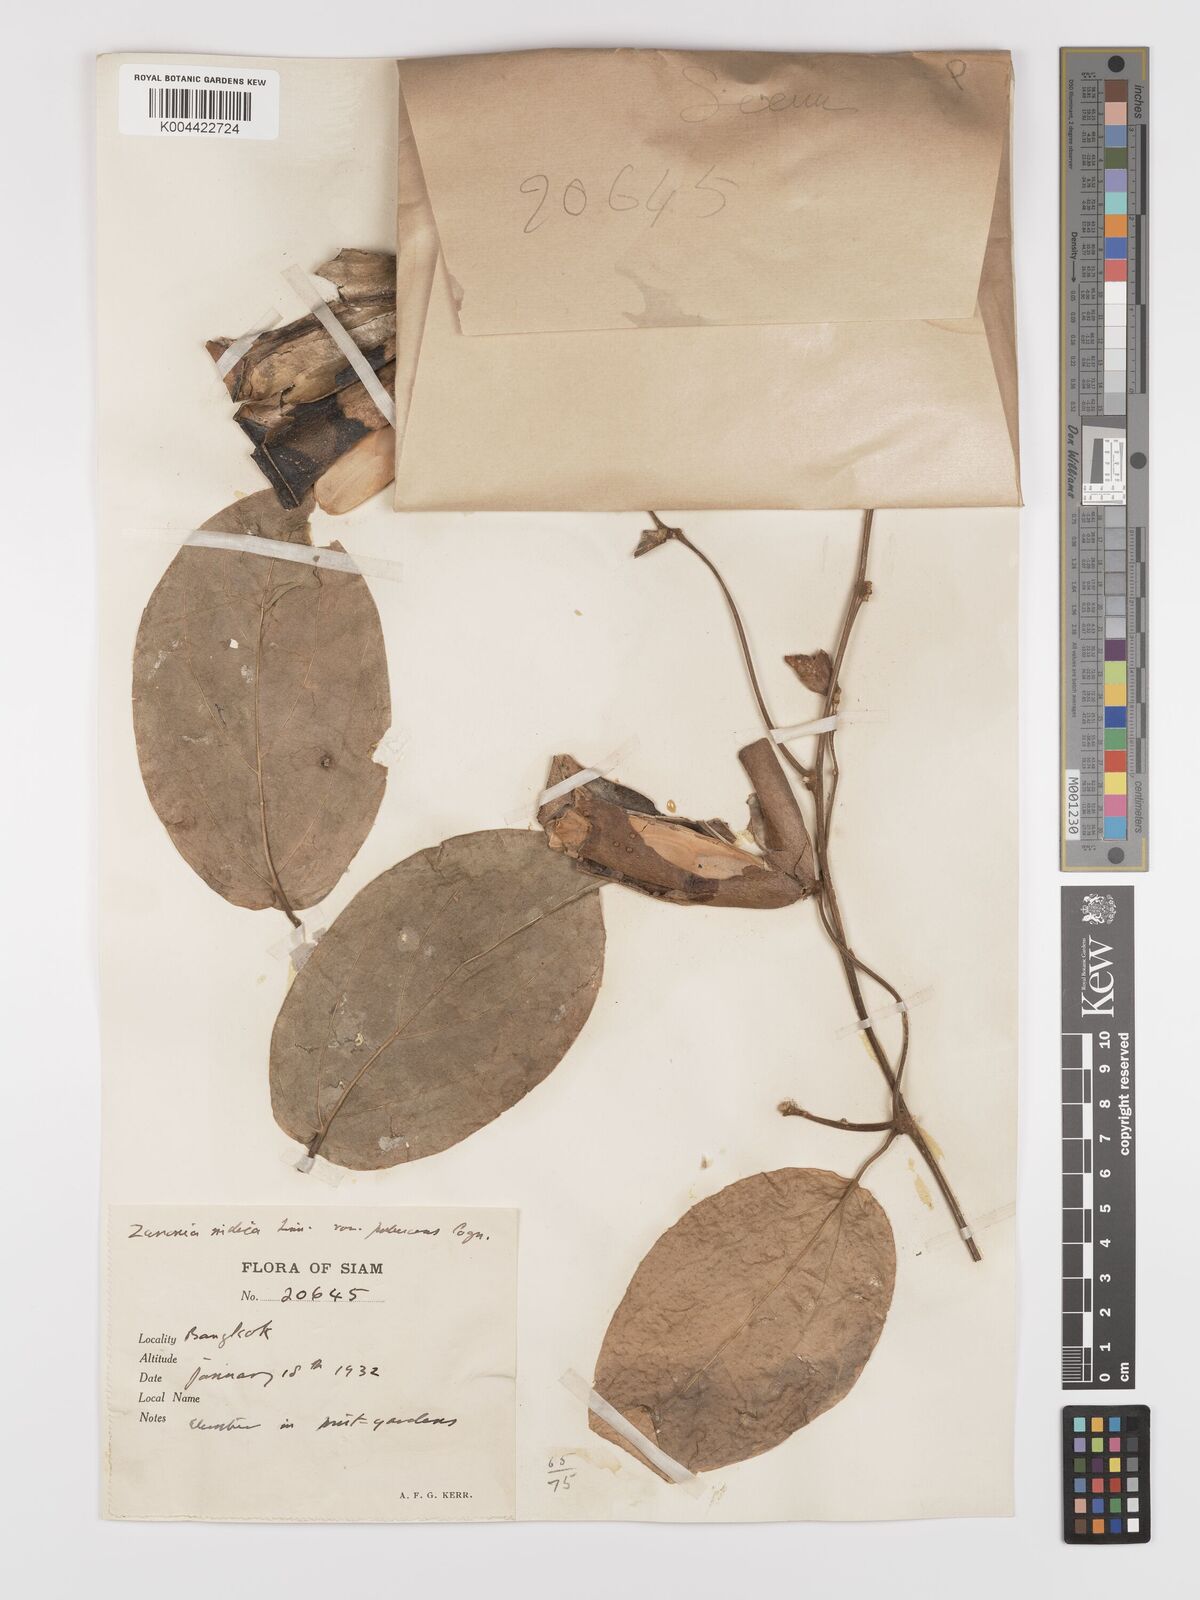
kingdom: Plantae
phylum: Tracheophyta
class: Magnoliopsida
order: Cucurbitales
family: Cucurbitaceae
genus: Zanonia
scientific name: Zanonia indica
